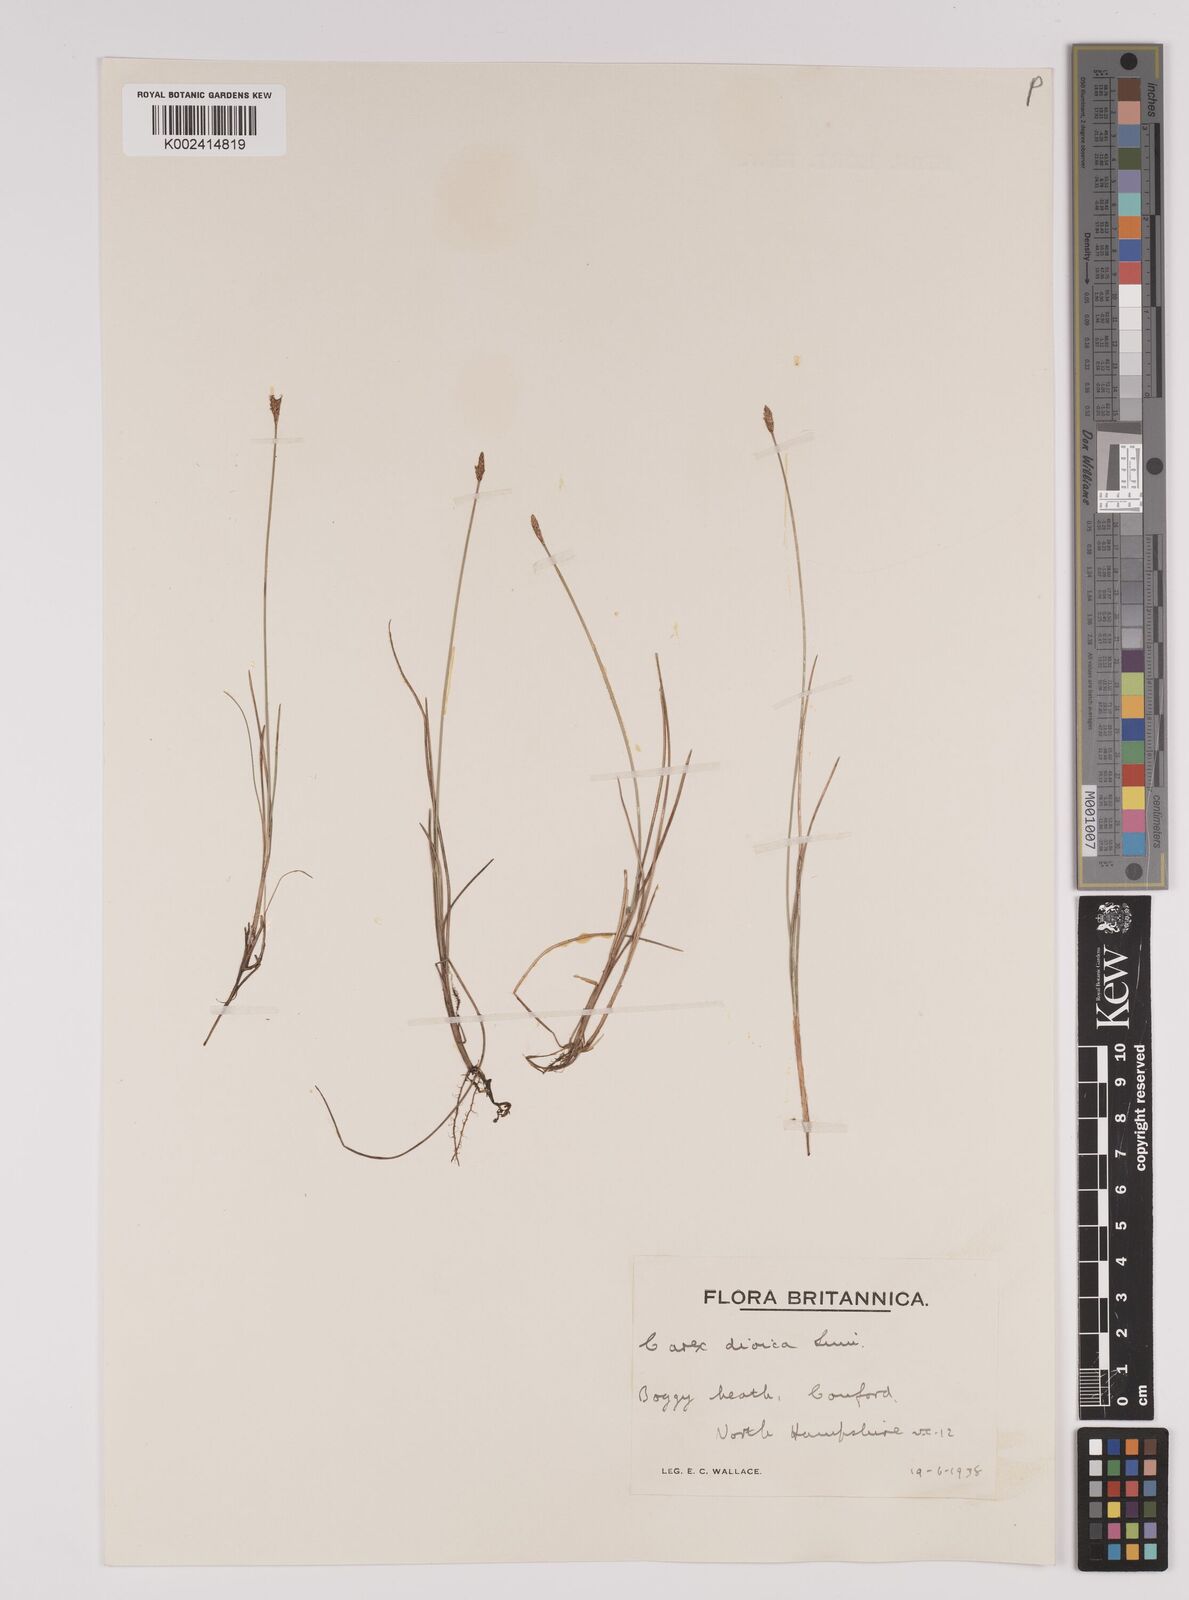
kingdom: Plantae
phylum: Tracheophyta
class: Liliopsida
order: Poales
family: Cyperaceae
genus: Carex
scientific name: Carex dioica
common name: Dioecious sedge
